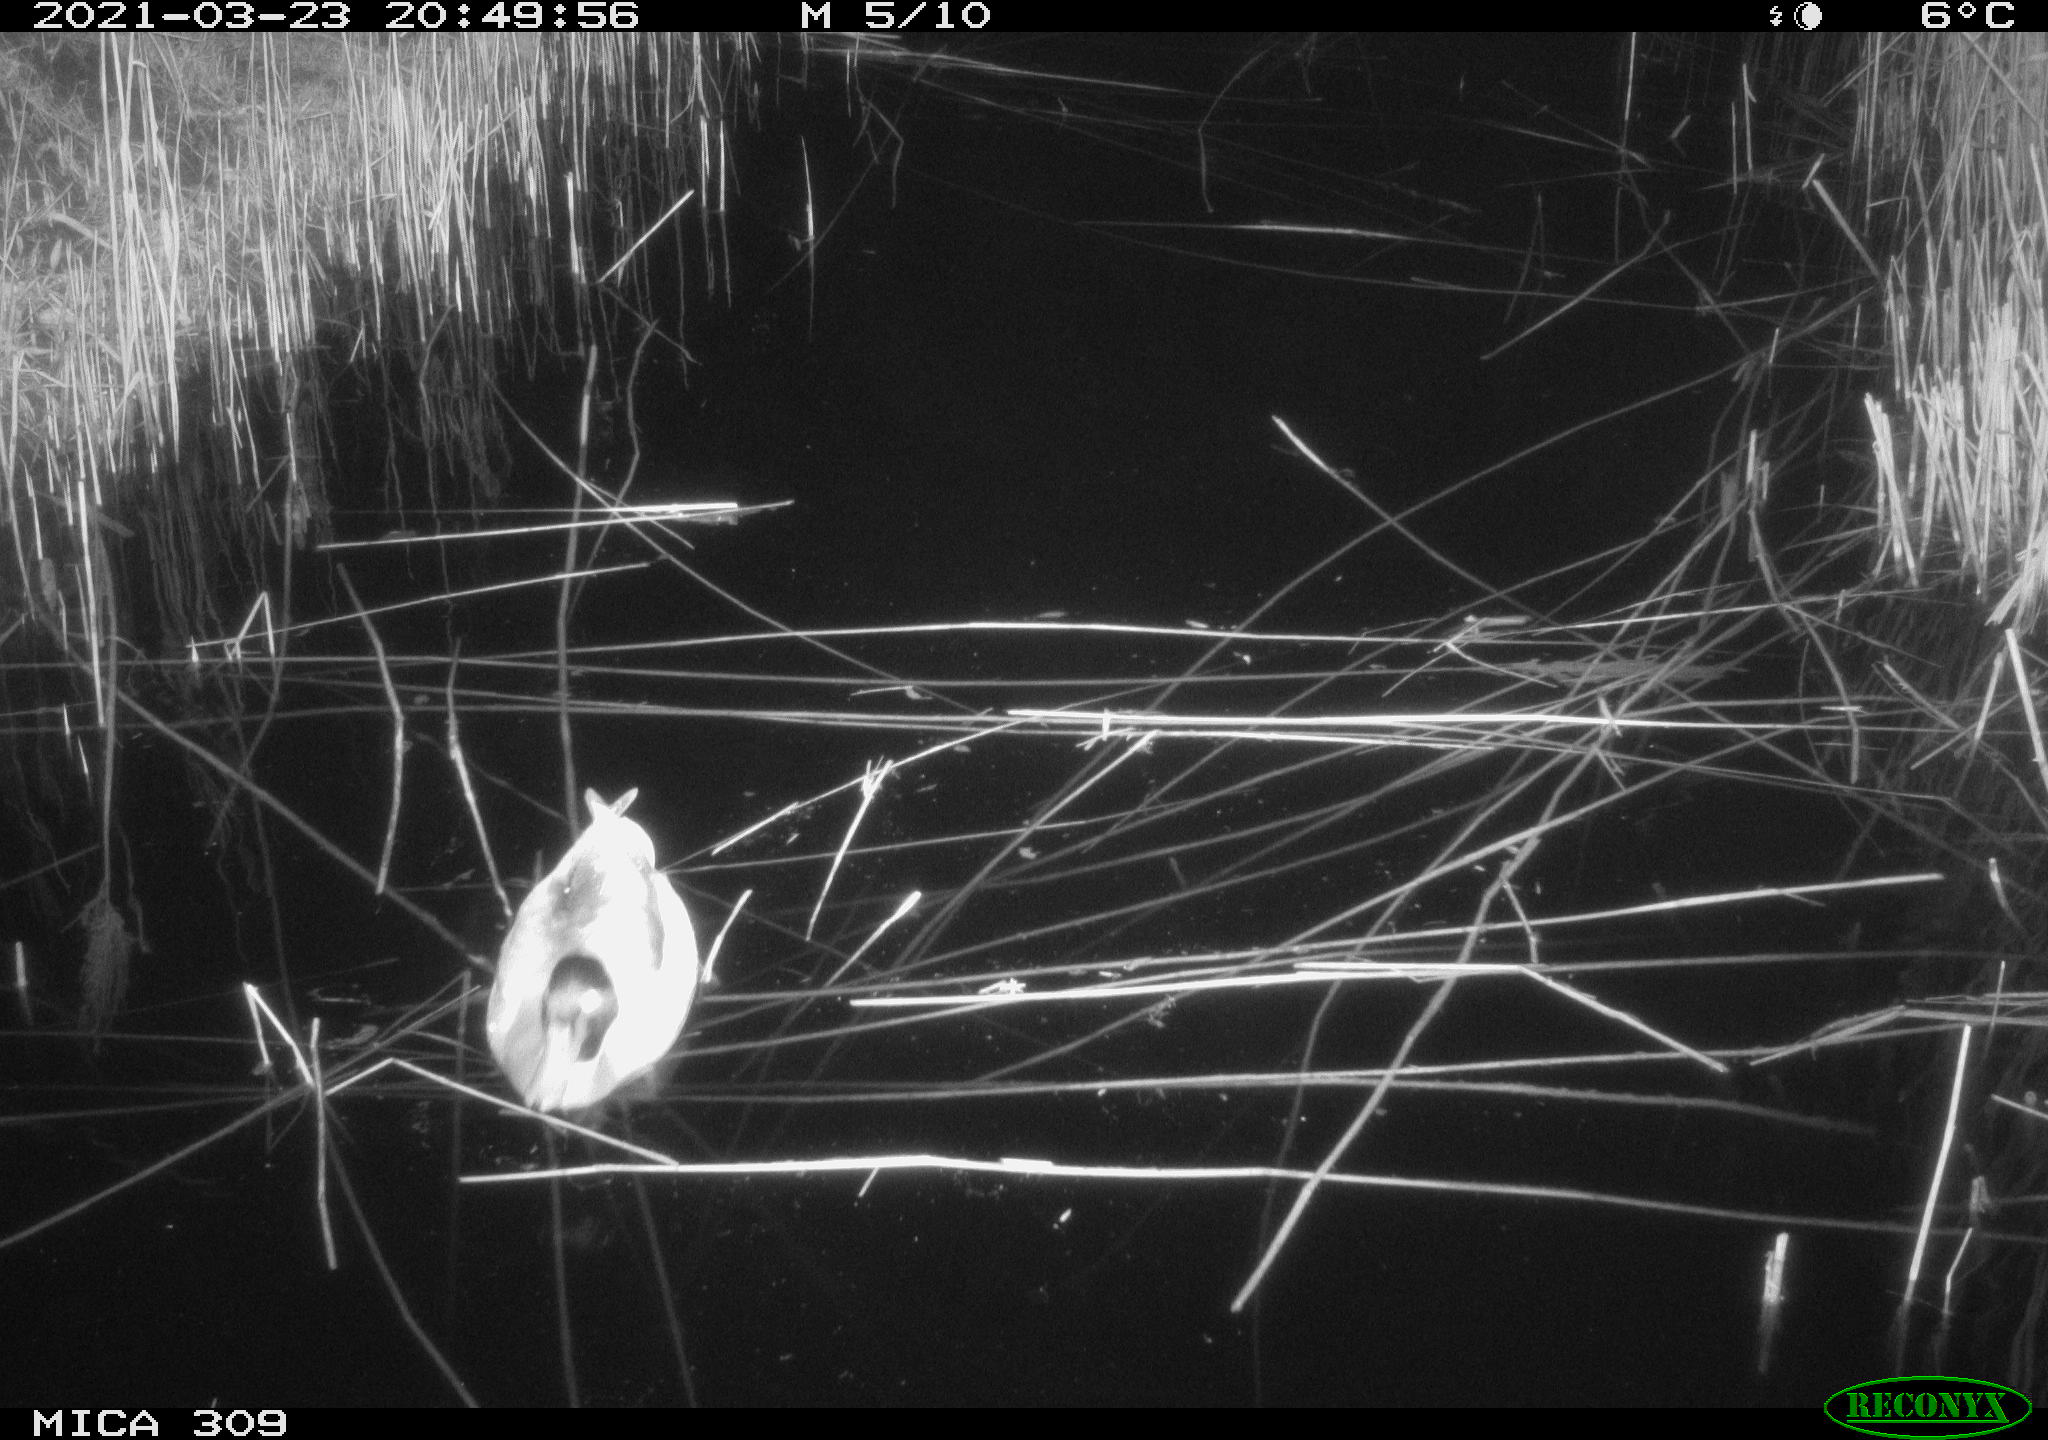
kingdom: Animalia
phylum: Chordata
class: Aves
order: Anseriformes
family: Anatidae
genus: Anas
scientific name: Anas platyrhynchos
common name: Mallard
